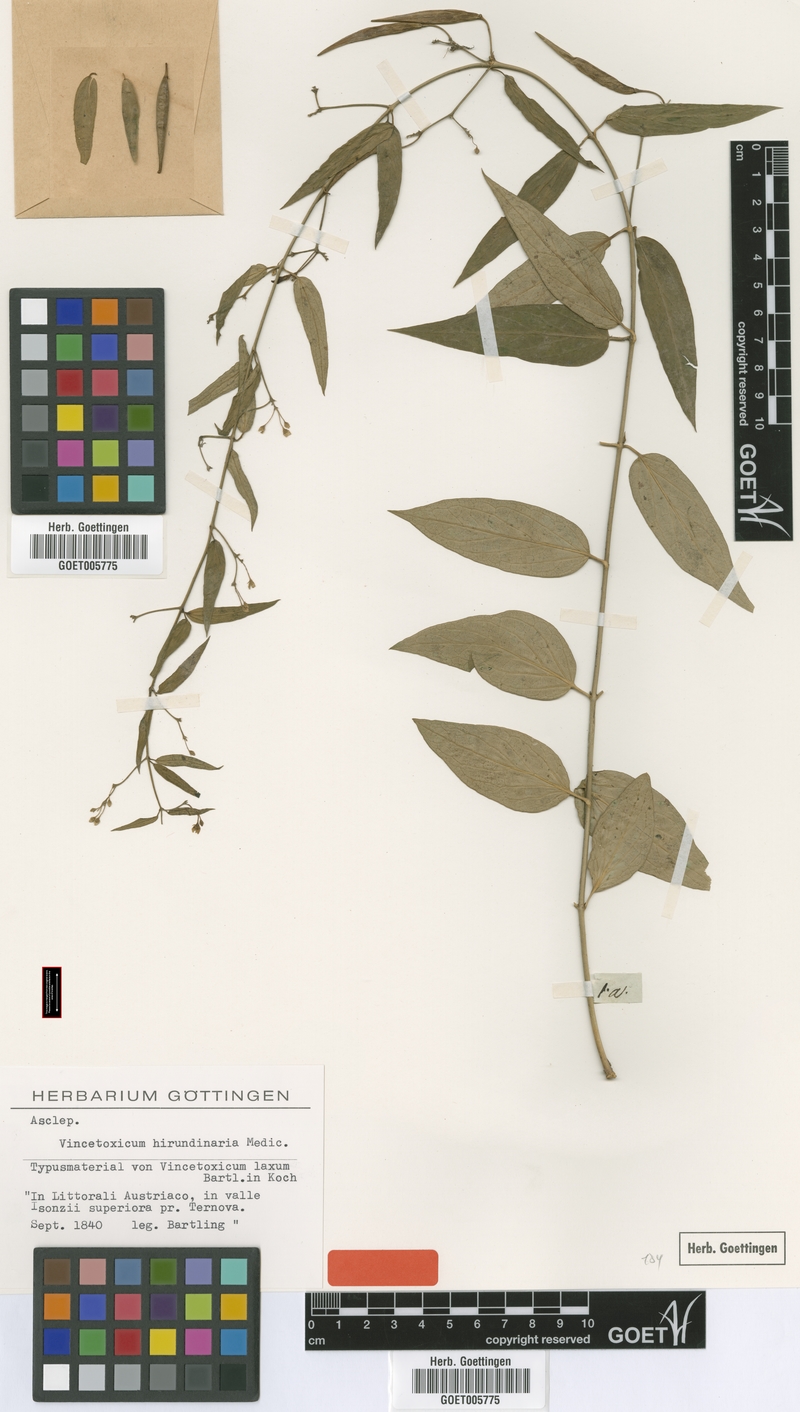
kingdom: Plantae
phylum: Tracheophyta
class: Magnoliopsida
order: Gentianales
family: Apocynaceae
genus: Vincetoxicum
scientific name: Vincetoxicum hirundinaria
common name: White swallowwort
